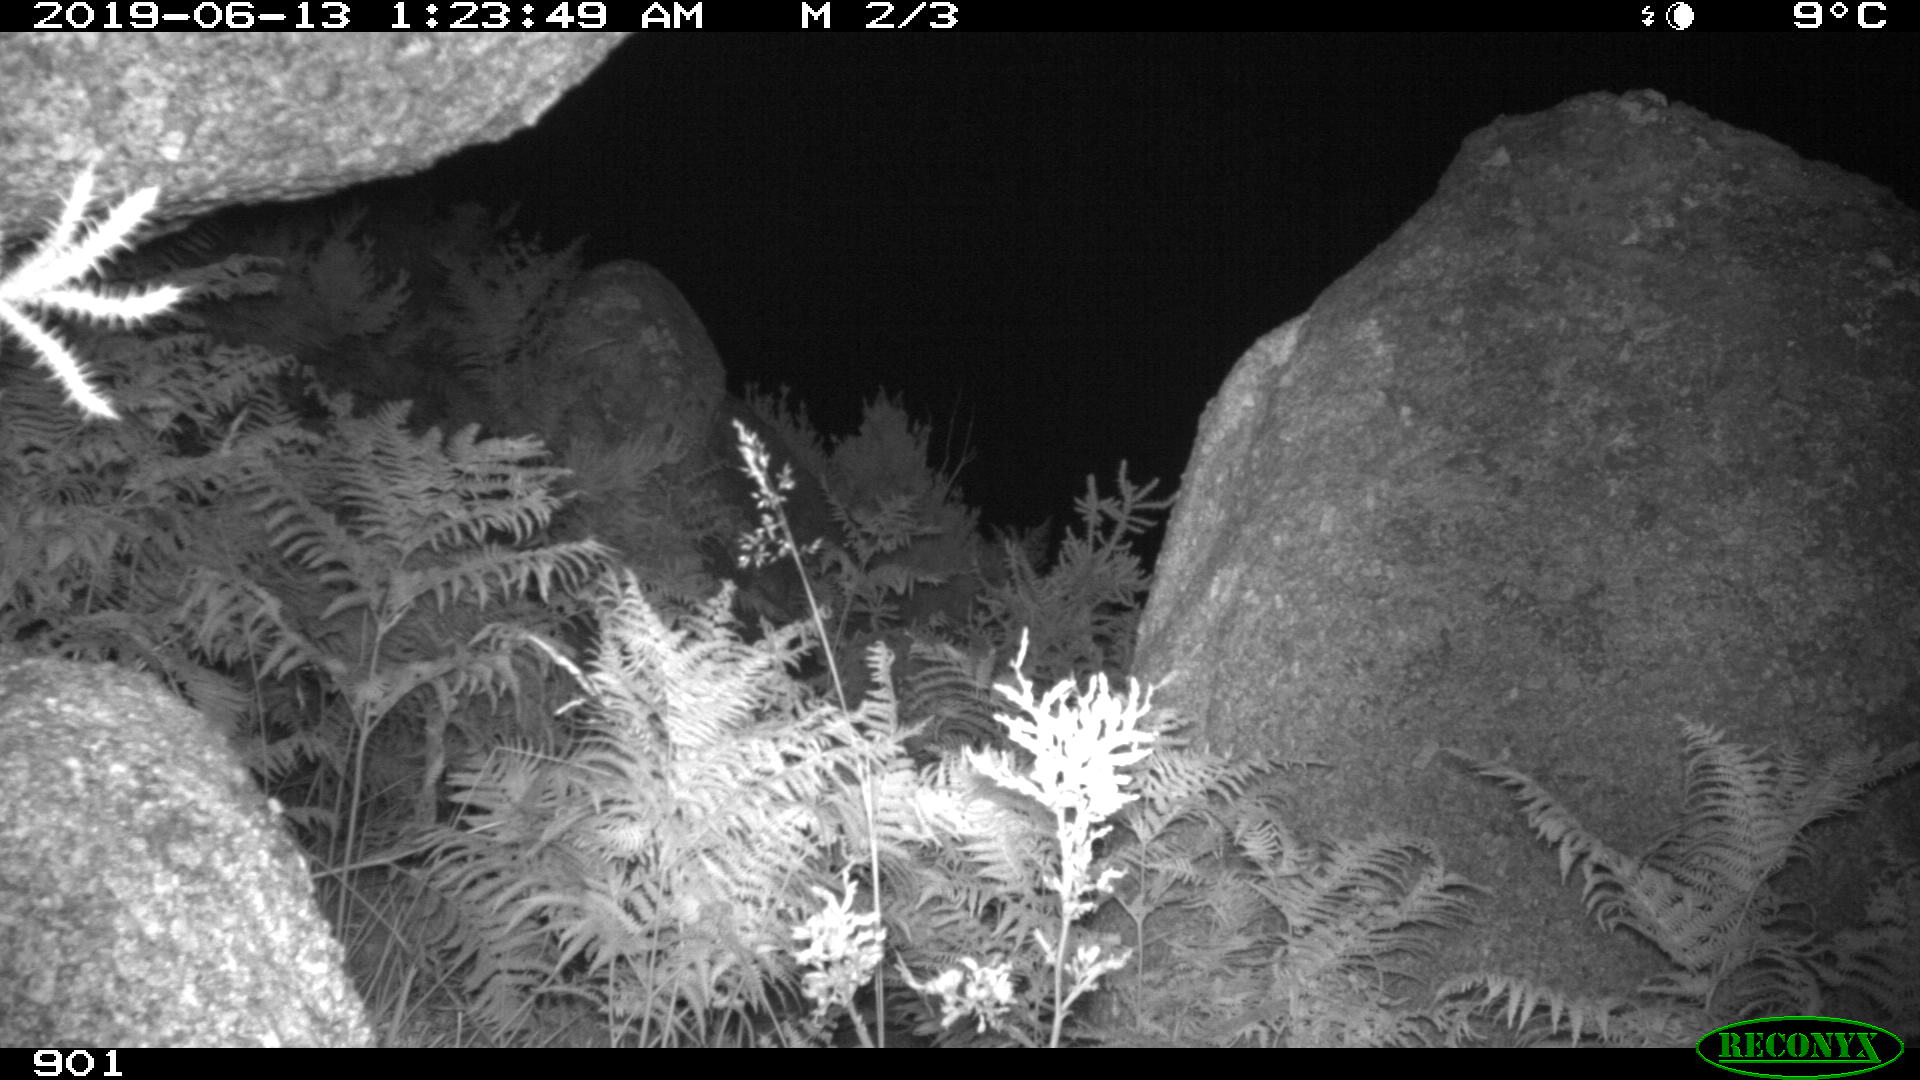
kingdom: Animalia
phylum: Chordata
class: Mammalia
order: Artiodactyla
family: Cervidae
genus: Capreolus
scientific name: Capreolus capreolus
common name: Western roe deer
